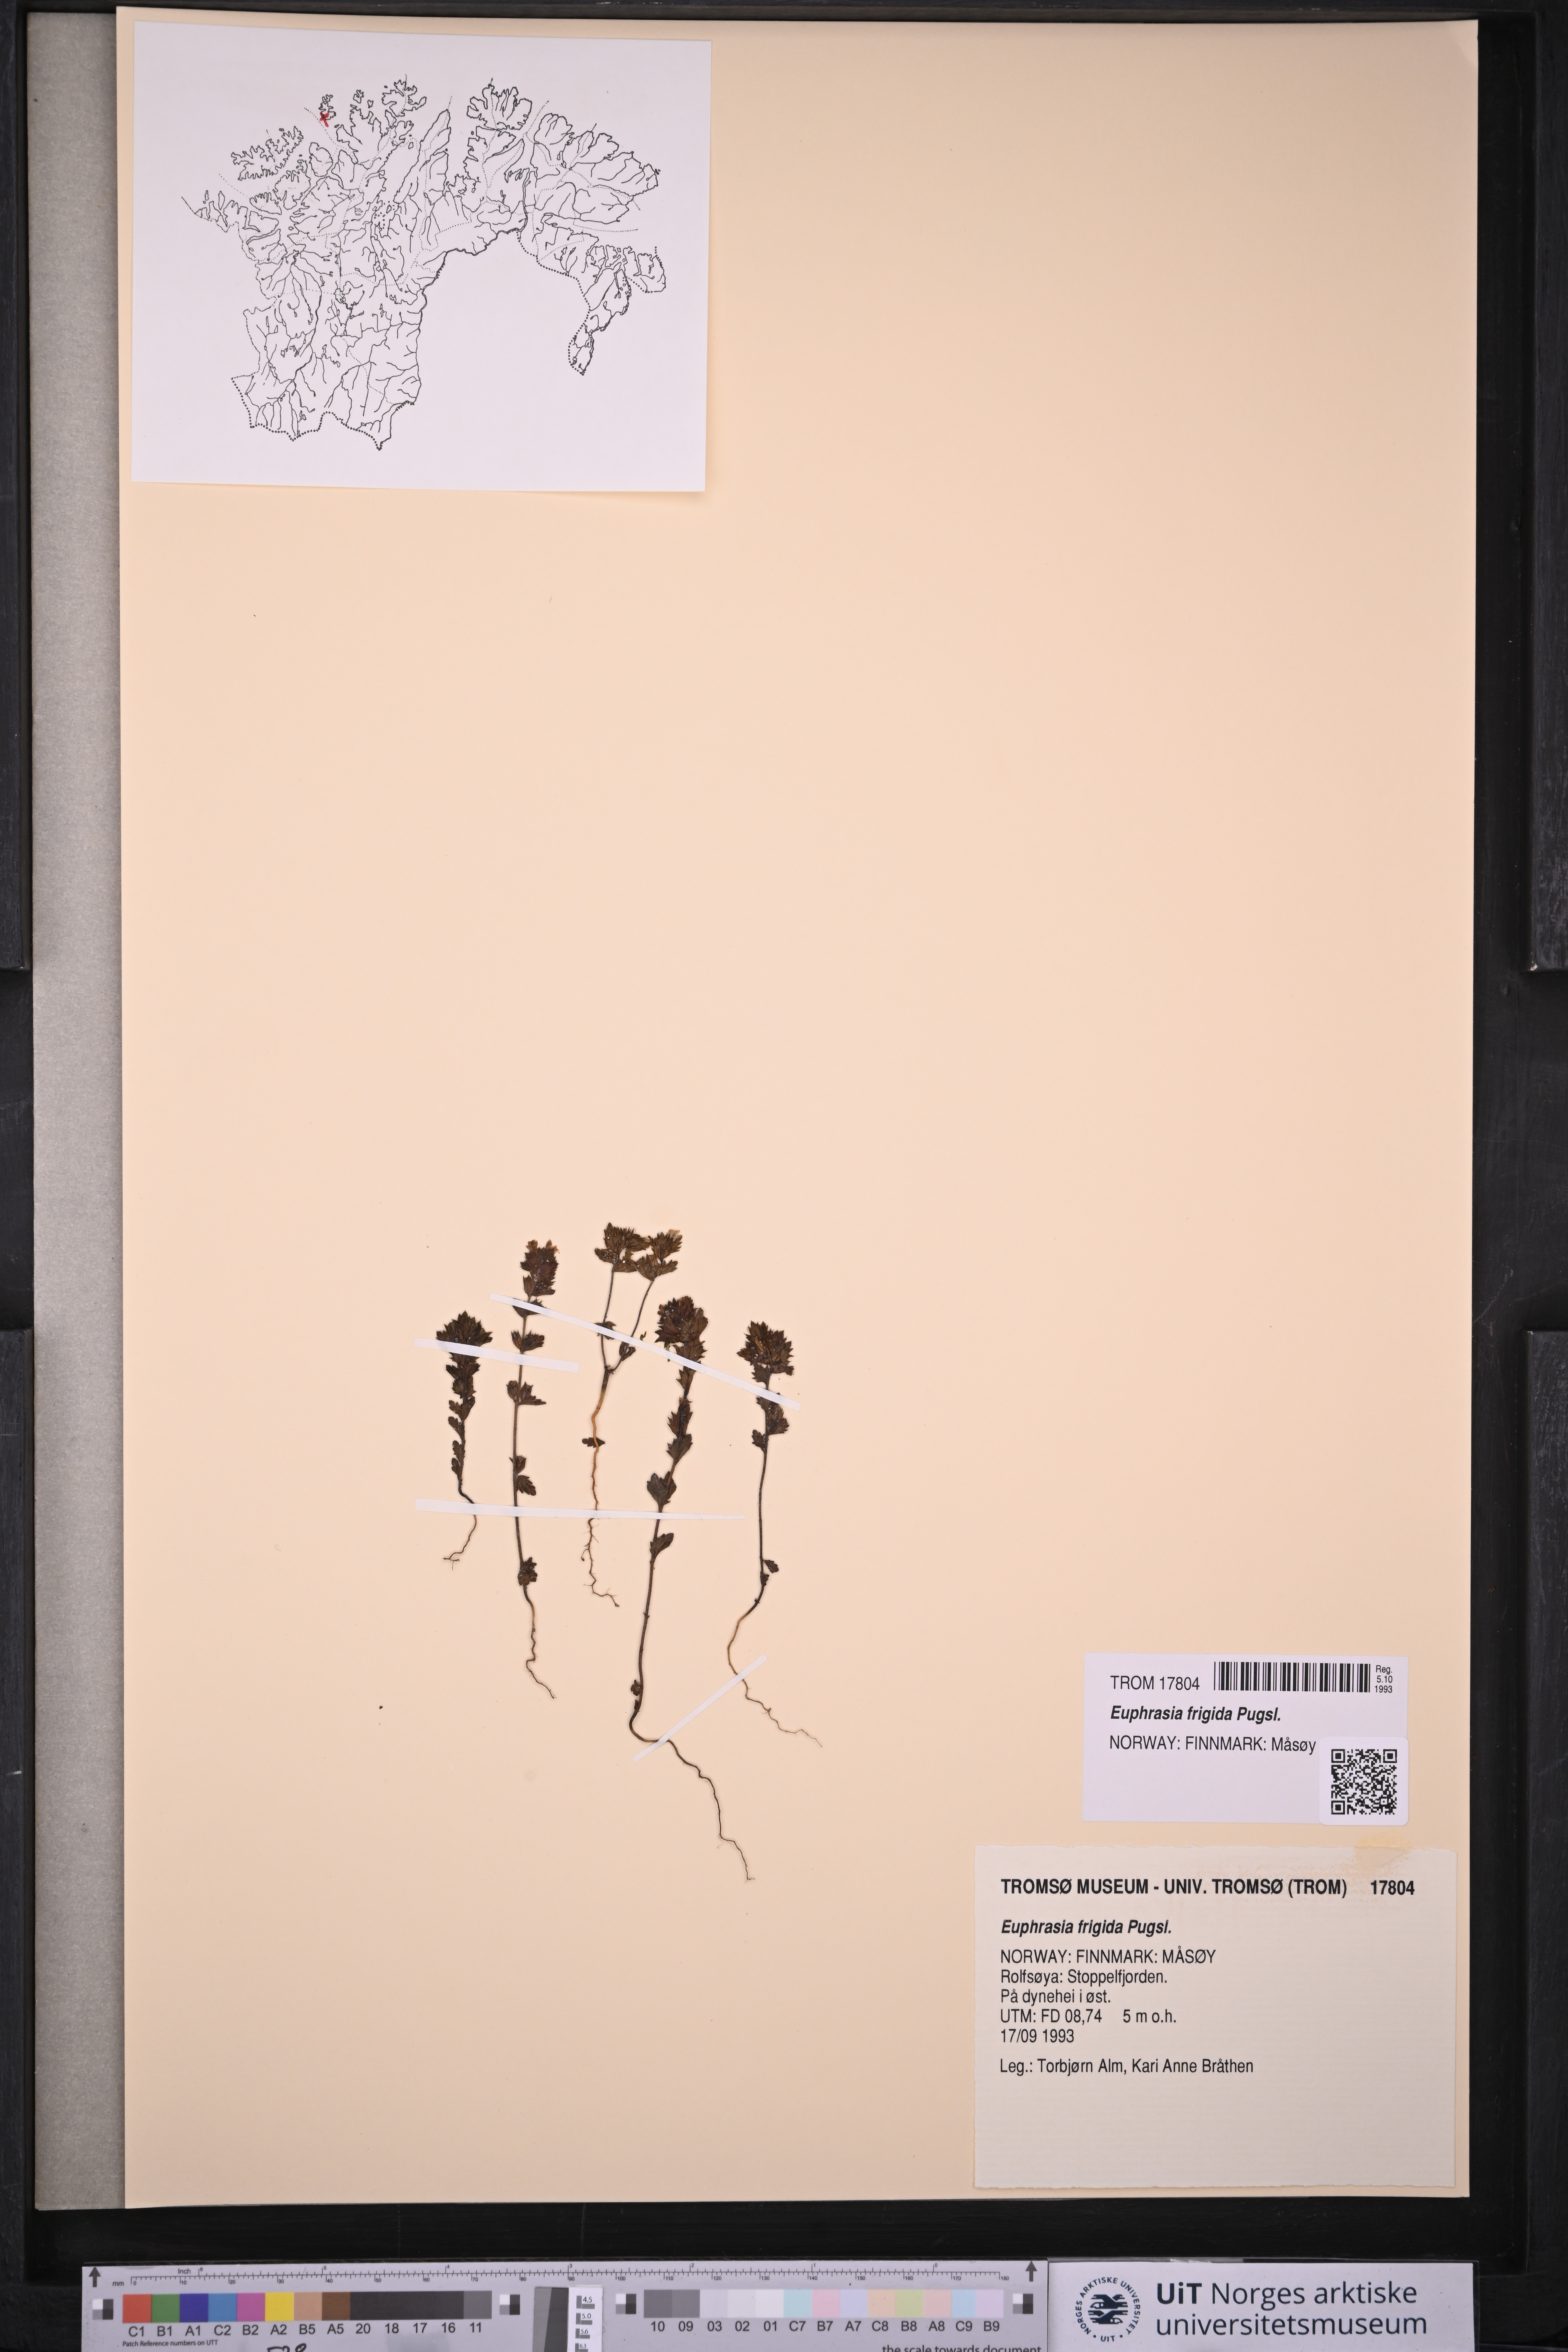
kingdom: Plantae
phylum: Tracheophyta
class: Magnoliopsida
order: Lamiales
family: Orobanchaceae
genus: Euphrasia
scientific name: Euphrasia frigida
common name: An eyebright
